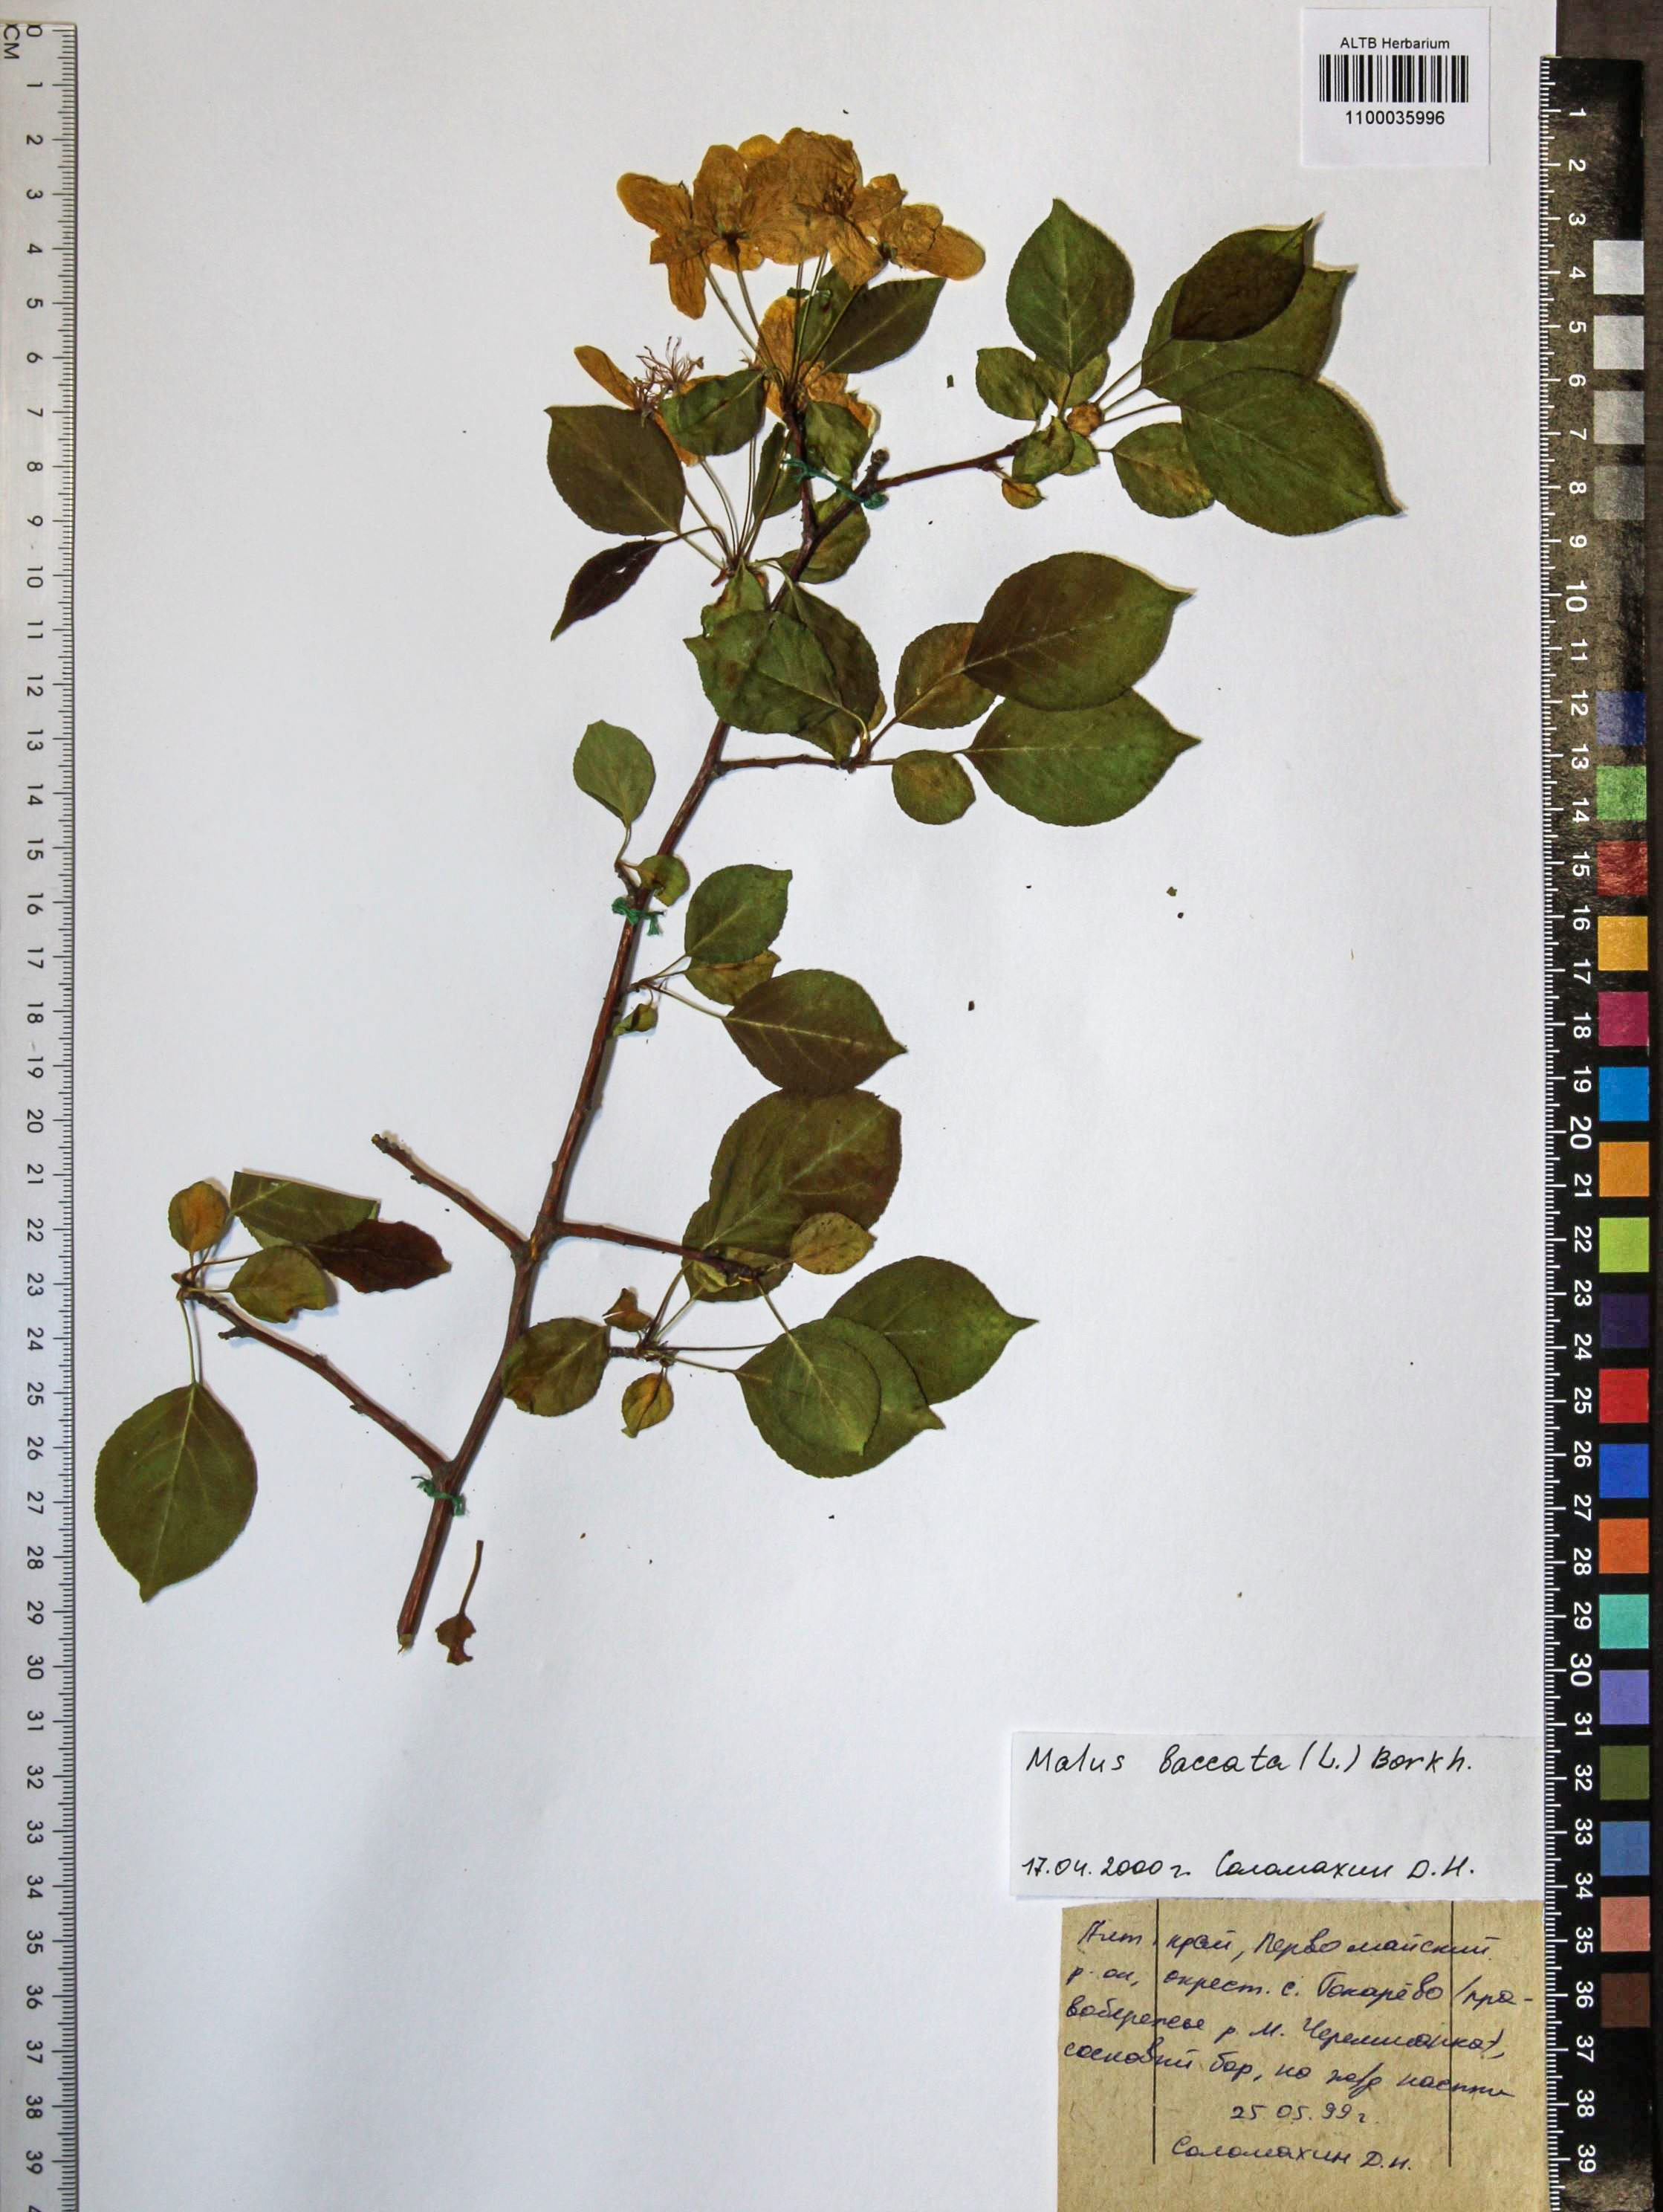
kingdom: Plantae
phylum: Tracheophyta
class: Magnoliopsida
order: Rosales
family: Rosaceae
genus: Malus
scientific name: Malus baccata
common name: Siberian crab
